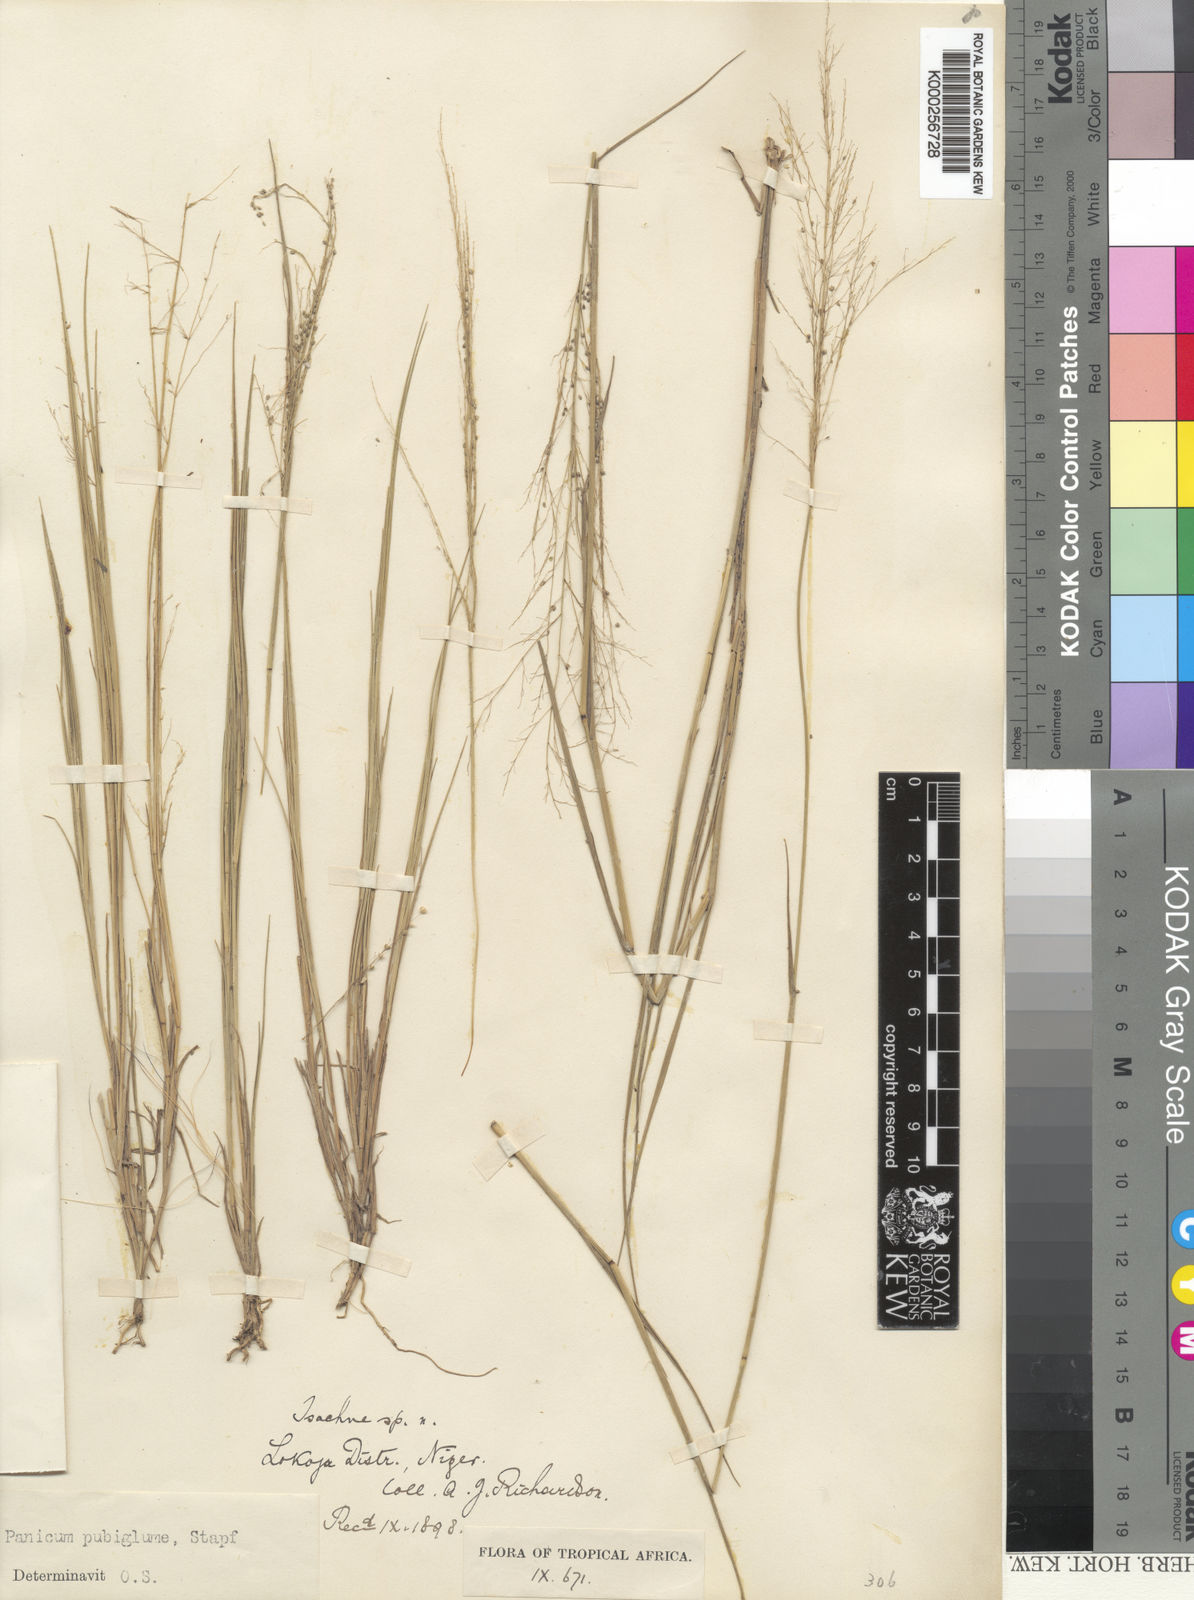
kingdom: Plantae
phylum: Tracheophyta
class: Liliopsida
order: Poales
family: Poaceae
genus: Trichanthecium
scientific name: Trichanthecium brazzavillense
